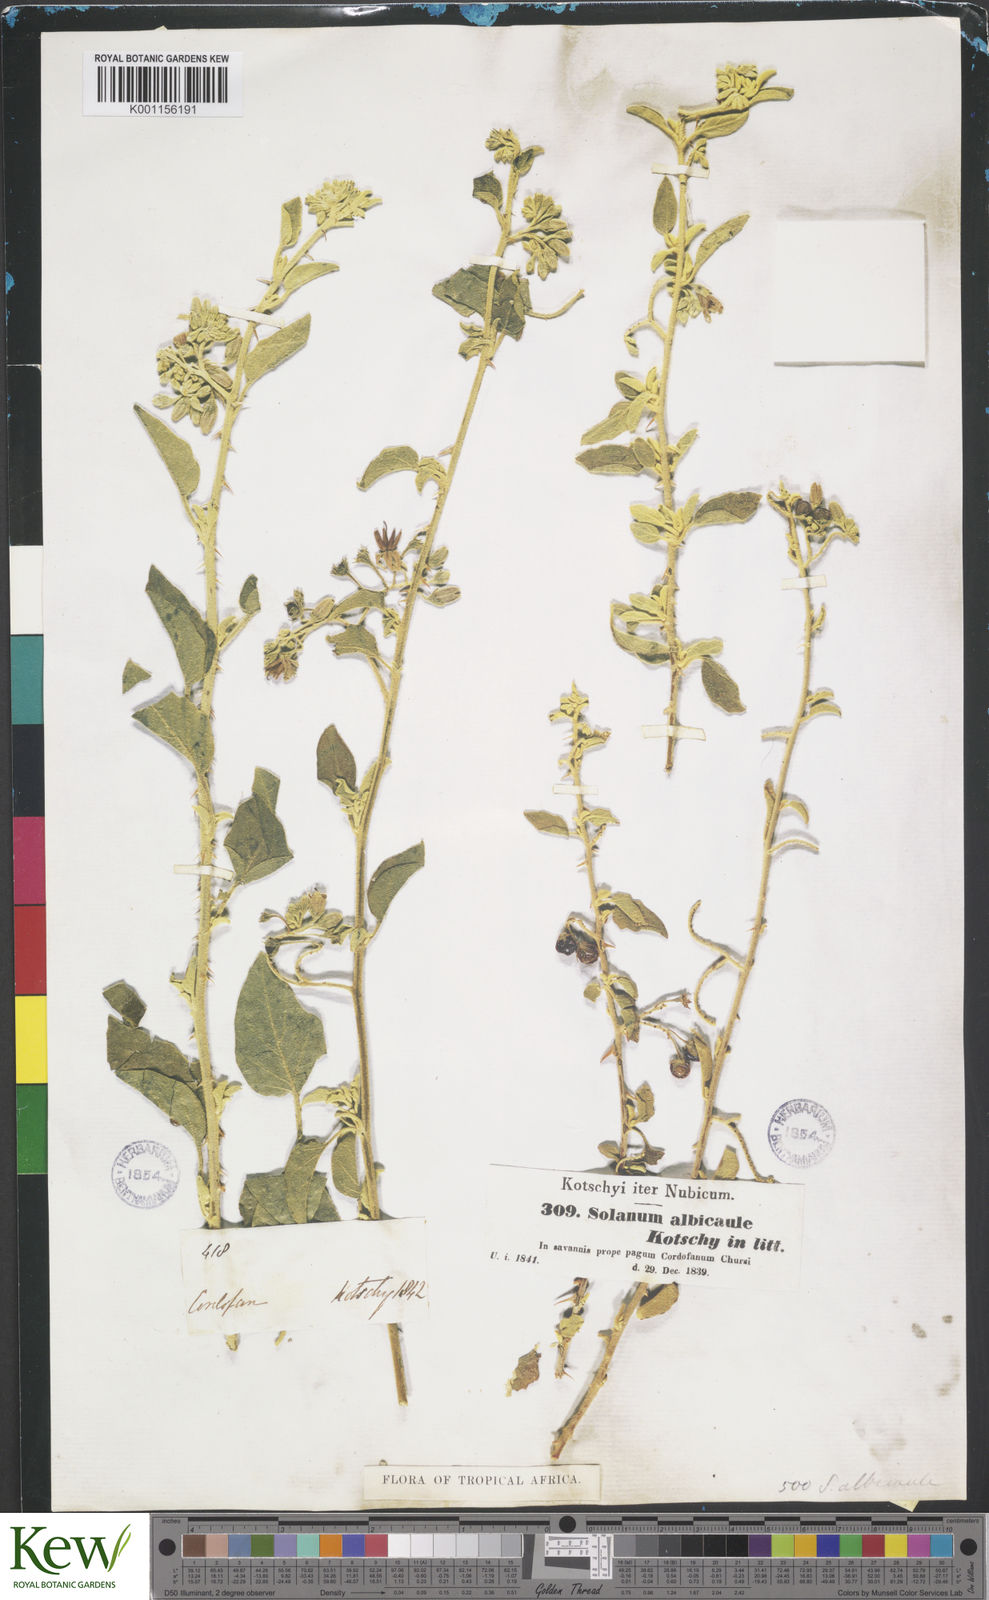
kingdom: Plantae
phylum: Tracheophyta
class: Magnoliopsida
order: Solanales
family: Solanaceae
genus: Solanum
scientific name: Solanum
